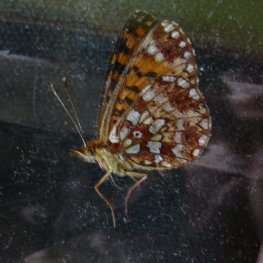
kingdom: Animalia
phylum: Arthropoda
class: Insecta
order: Lepidoptera
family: Nymphalidae
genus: Boloria
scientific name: Boloria selene
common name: Silver-bordered Fritillary
